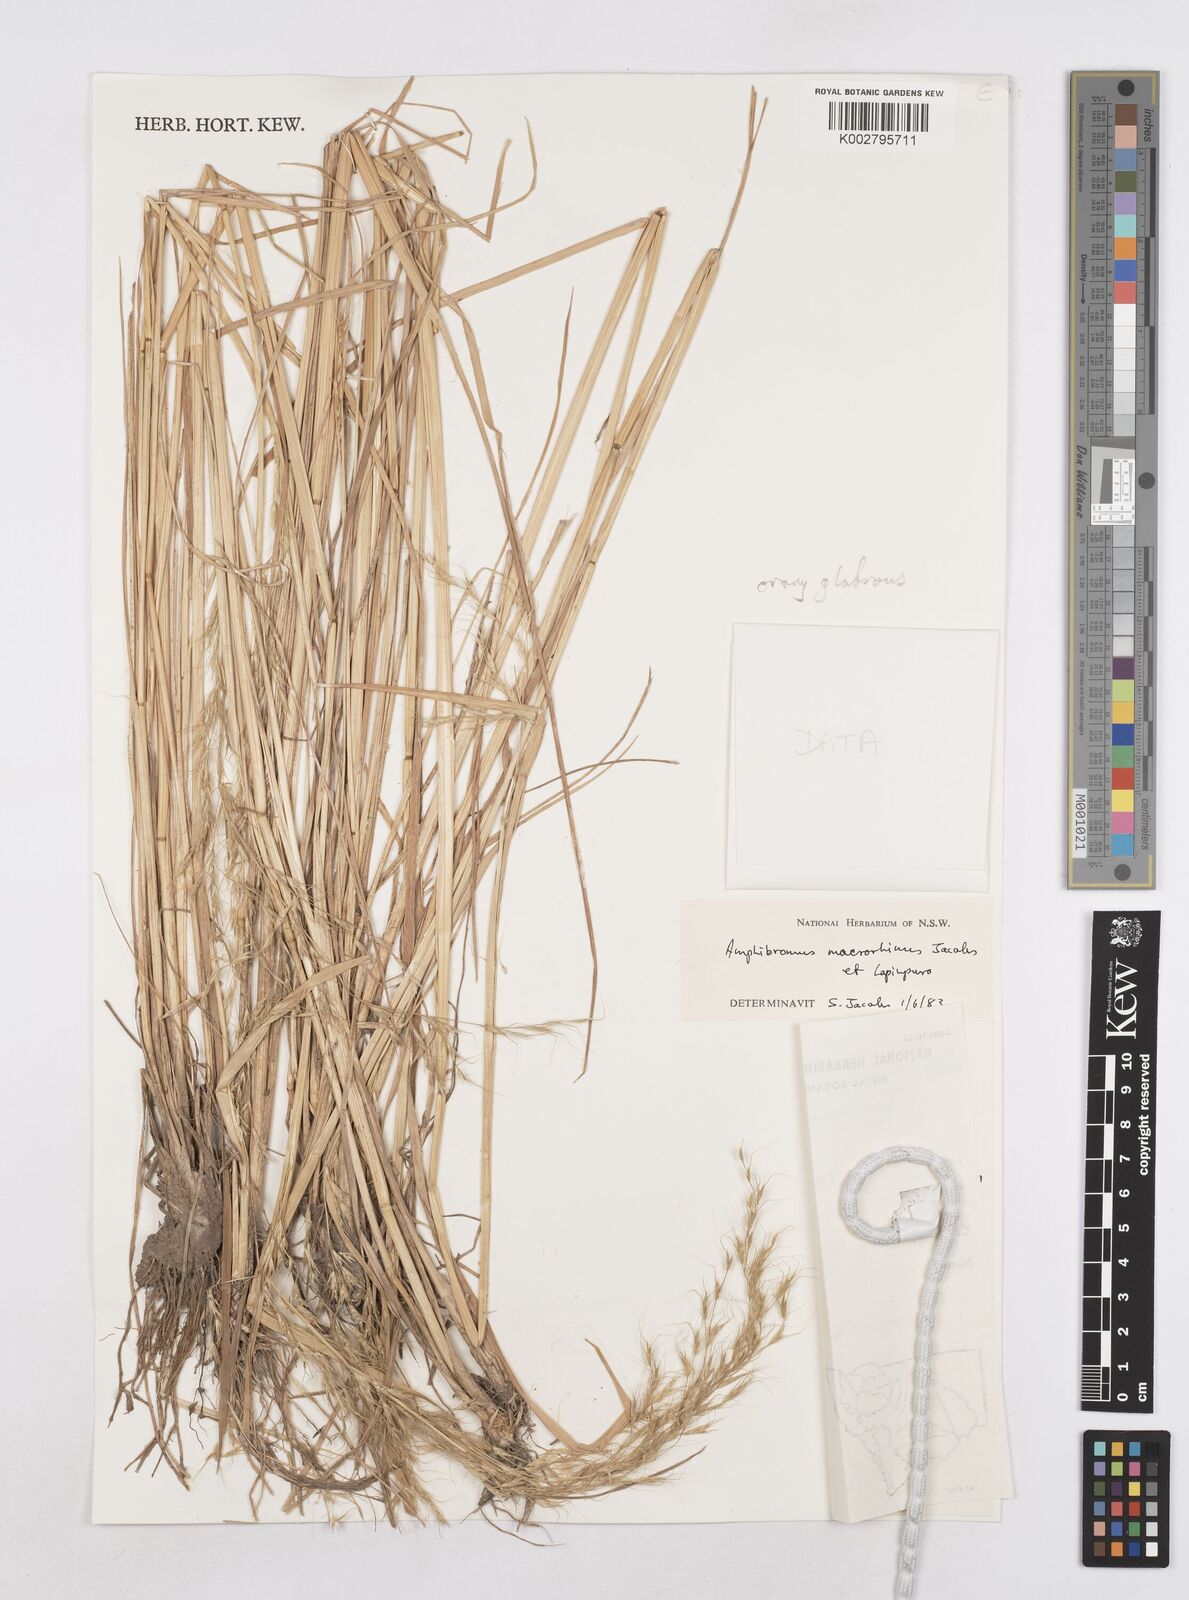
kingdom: Plantae
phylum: Tracheophyta
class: Liliopsida
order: Poales
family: Poaceae
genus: Helictotrichon
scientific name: Helictotrichon
